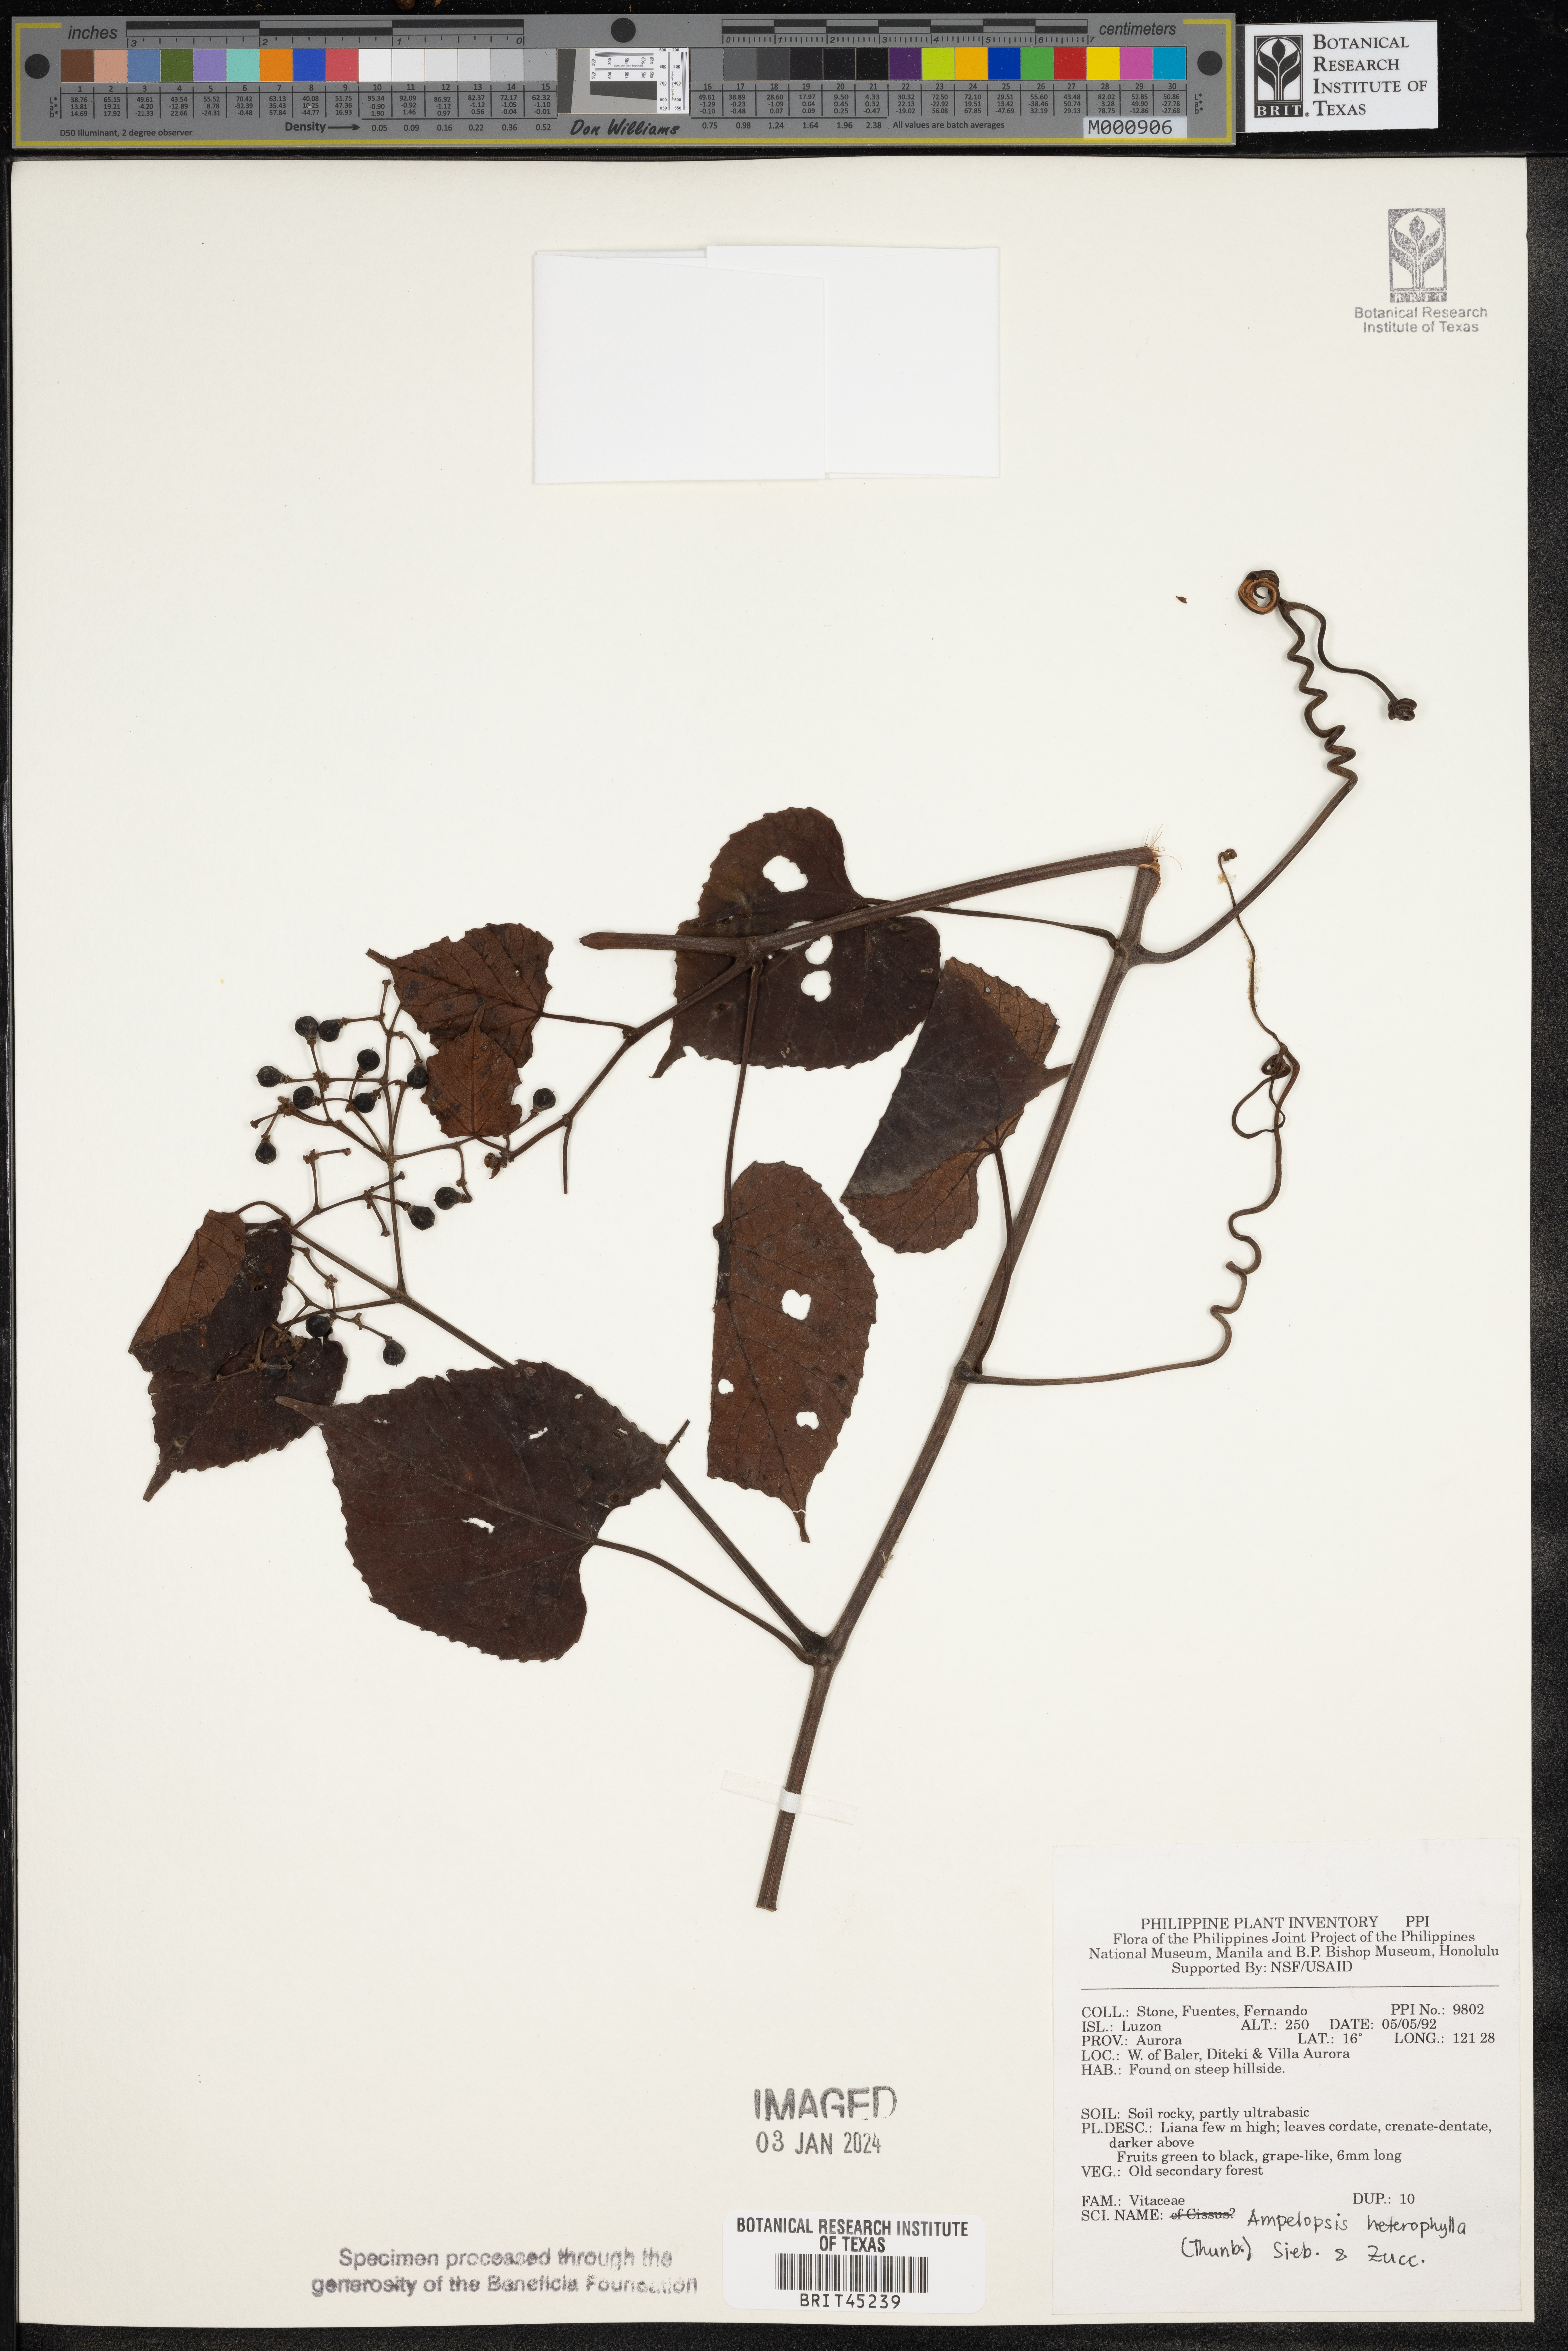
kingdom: Plantae
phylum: Tracheophyta
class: Magnoliopsida
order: Vitales
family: Vitaceae
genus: Ampelopsis
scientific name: Ampelopsis glandulosa
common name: Amur peppervine
